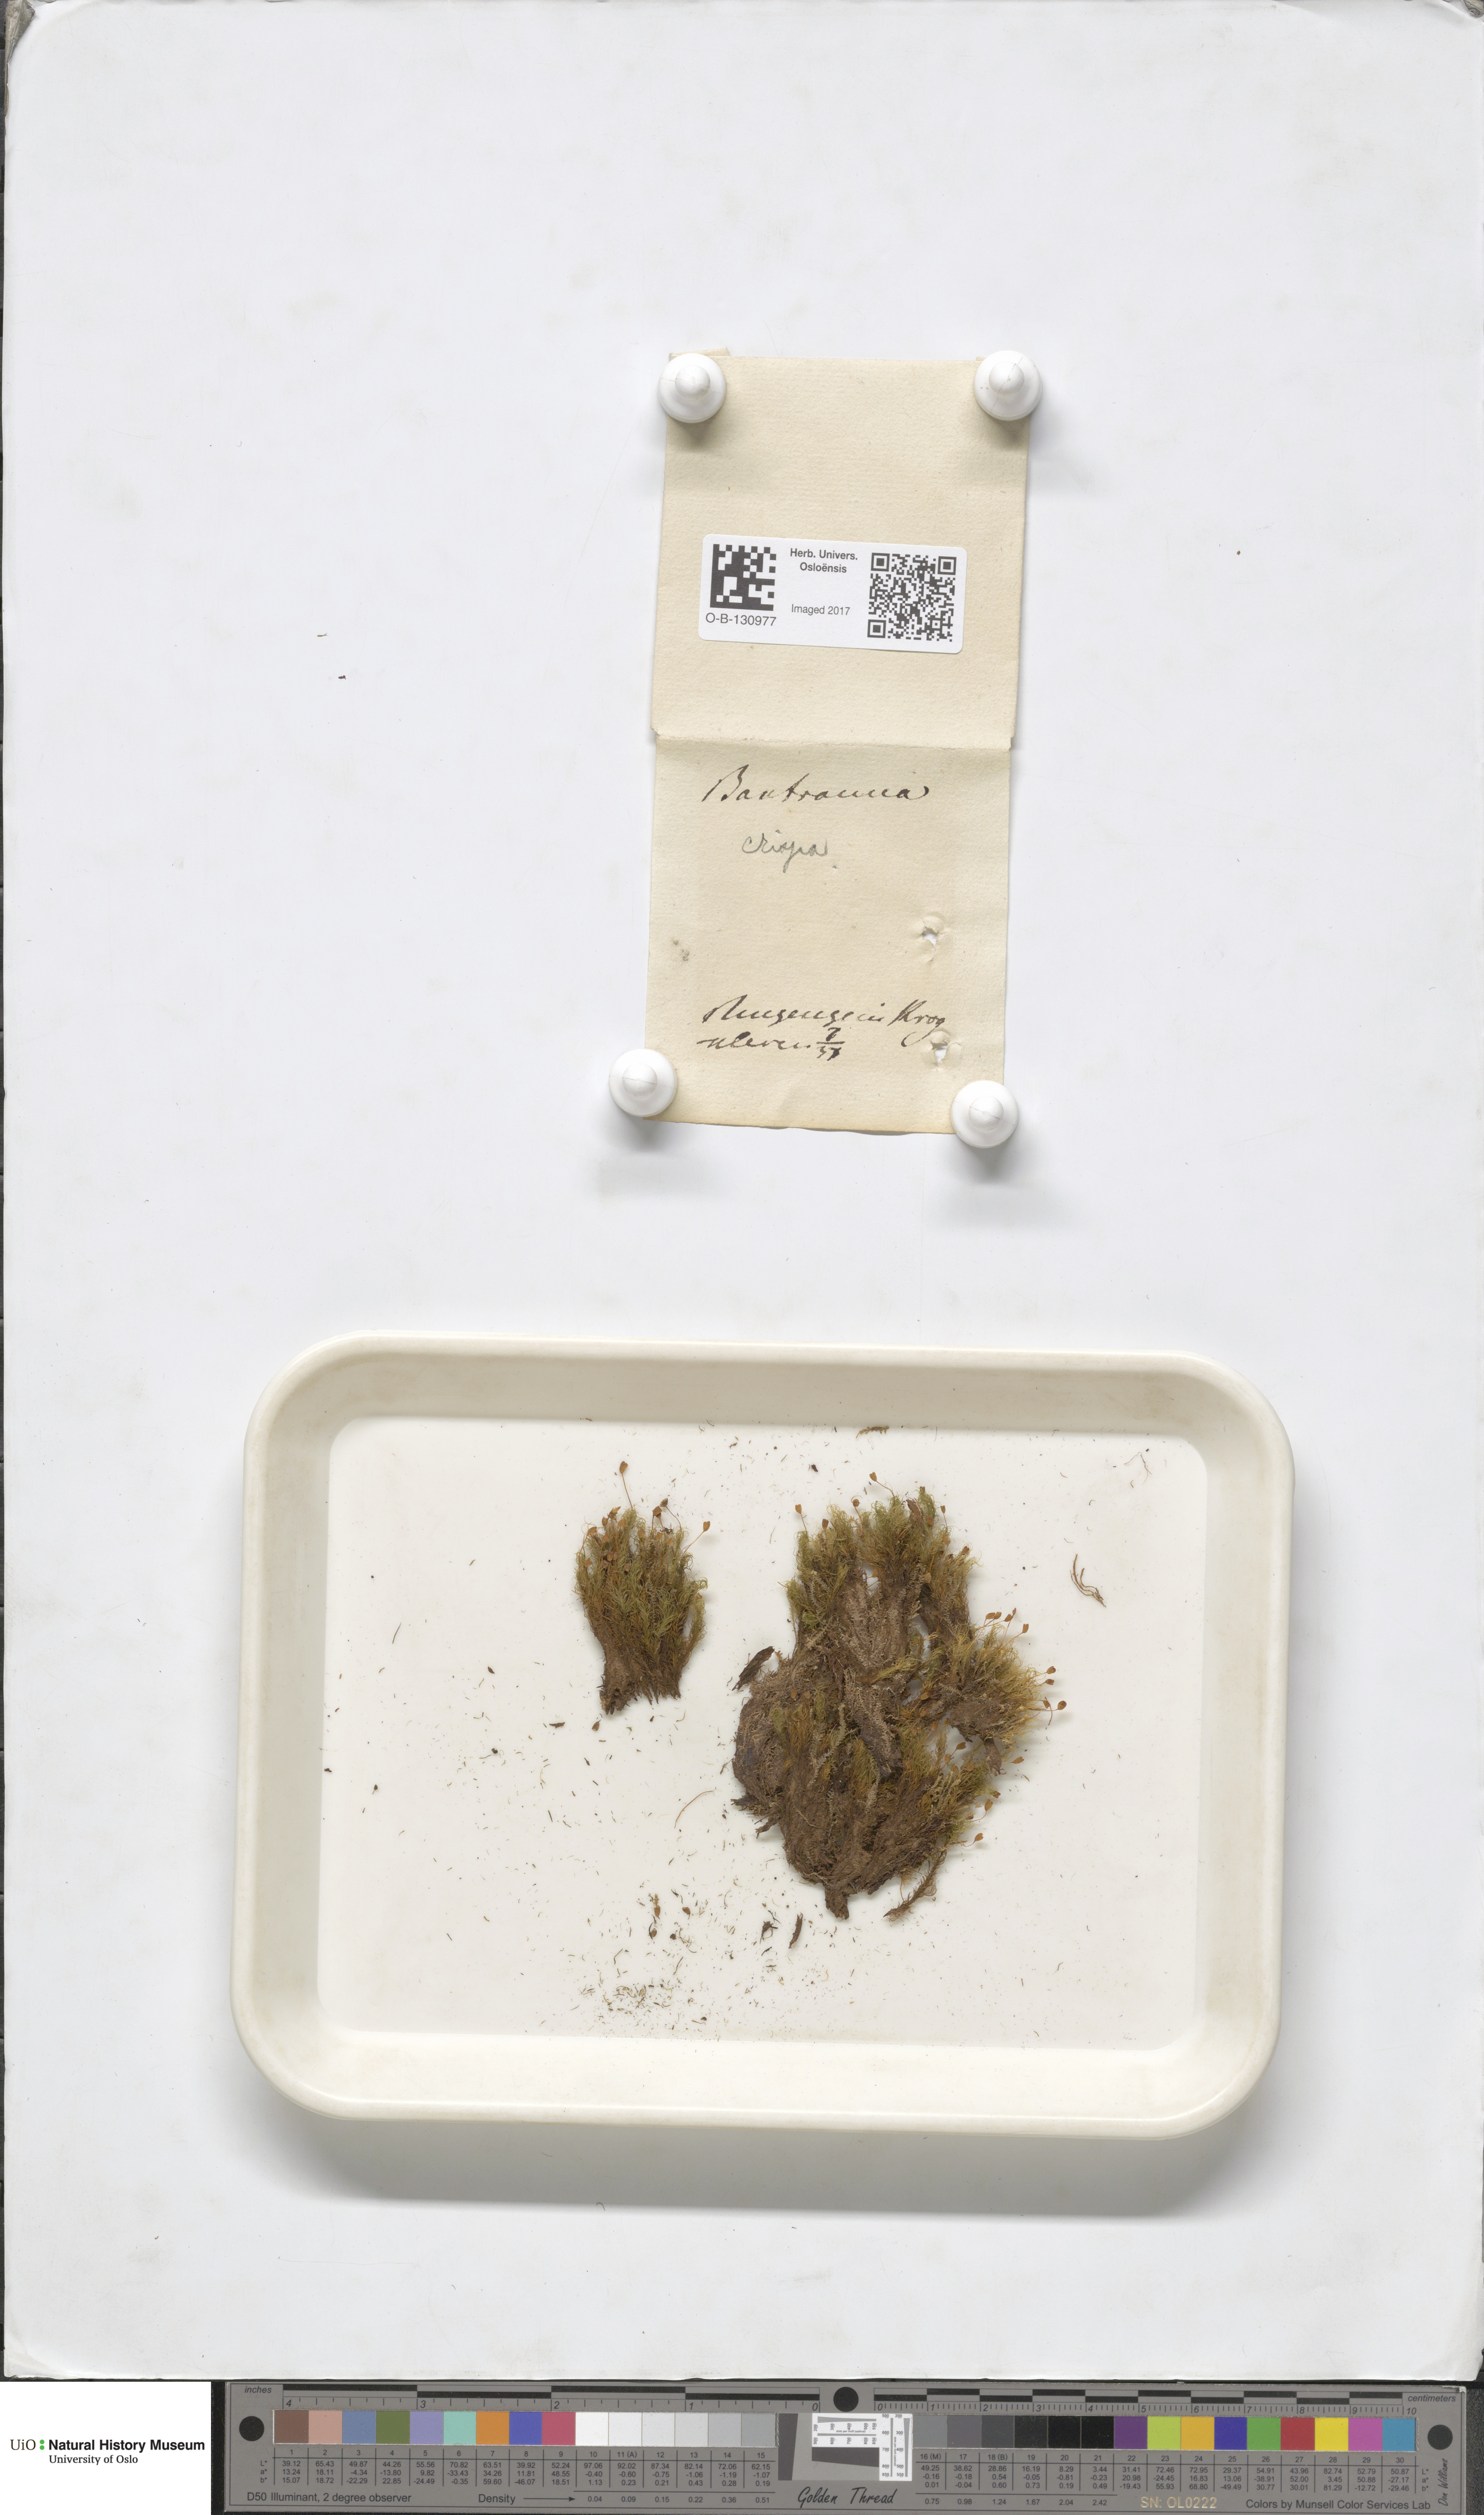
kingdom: Plantae
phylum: Bryophyta
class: Bryopsida
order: Bartramiales
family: Bartramiaceae
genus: Bartramia
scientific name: Bartramia pomiformis
